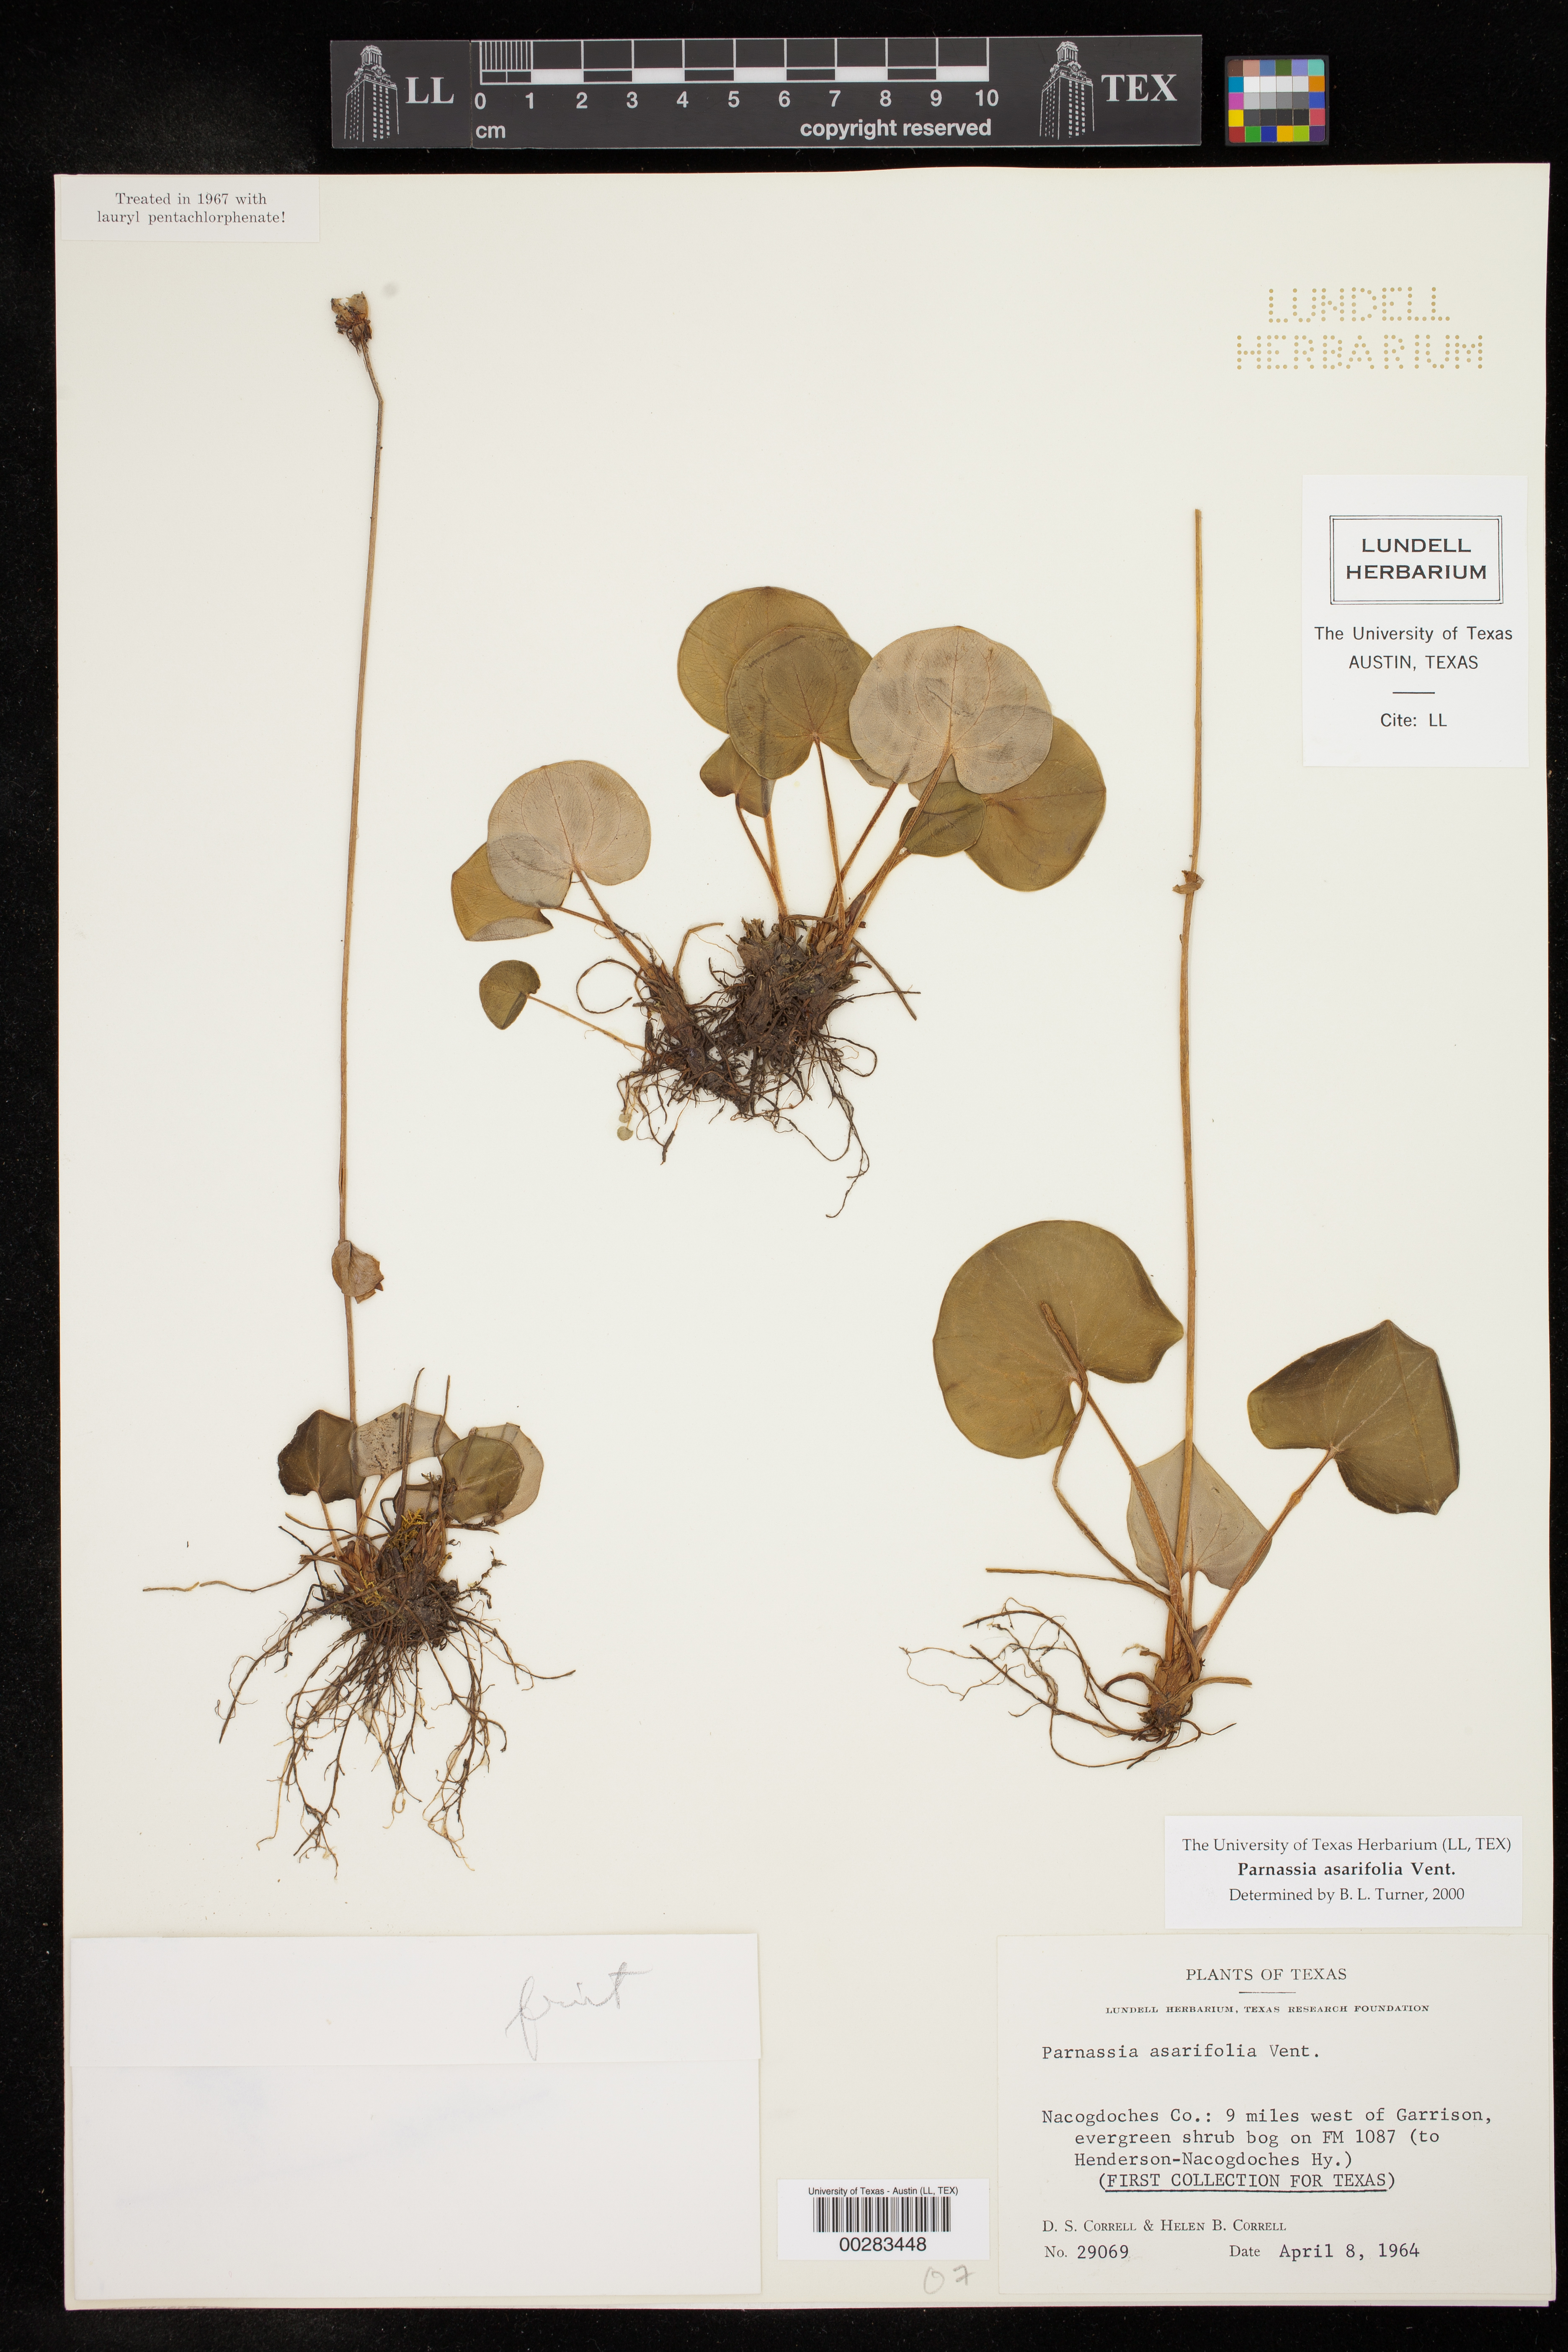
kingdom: Plantae
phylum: Tracheophyta
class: Magnoliopsida
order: Celastrales
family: Parnassiaceae
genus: Parnassia
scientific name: Parnassia asarifolia
